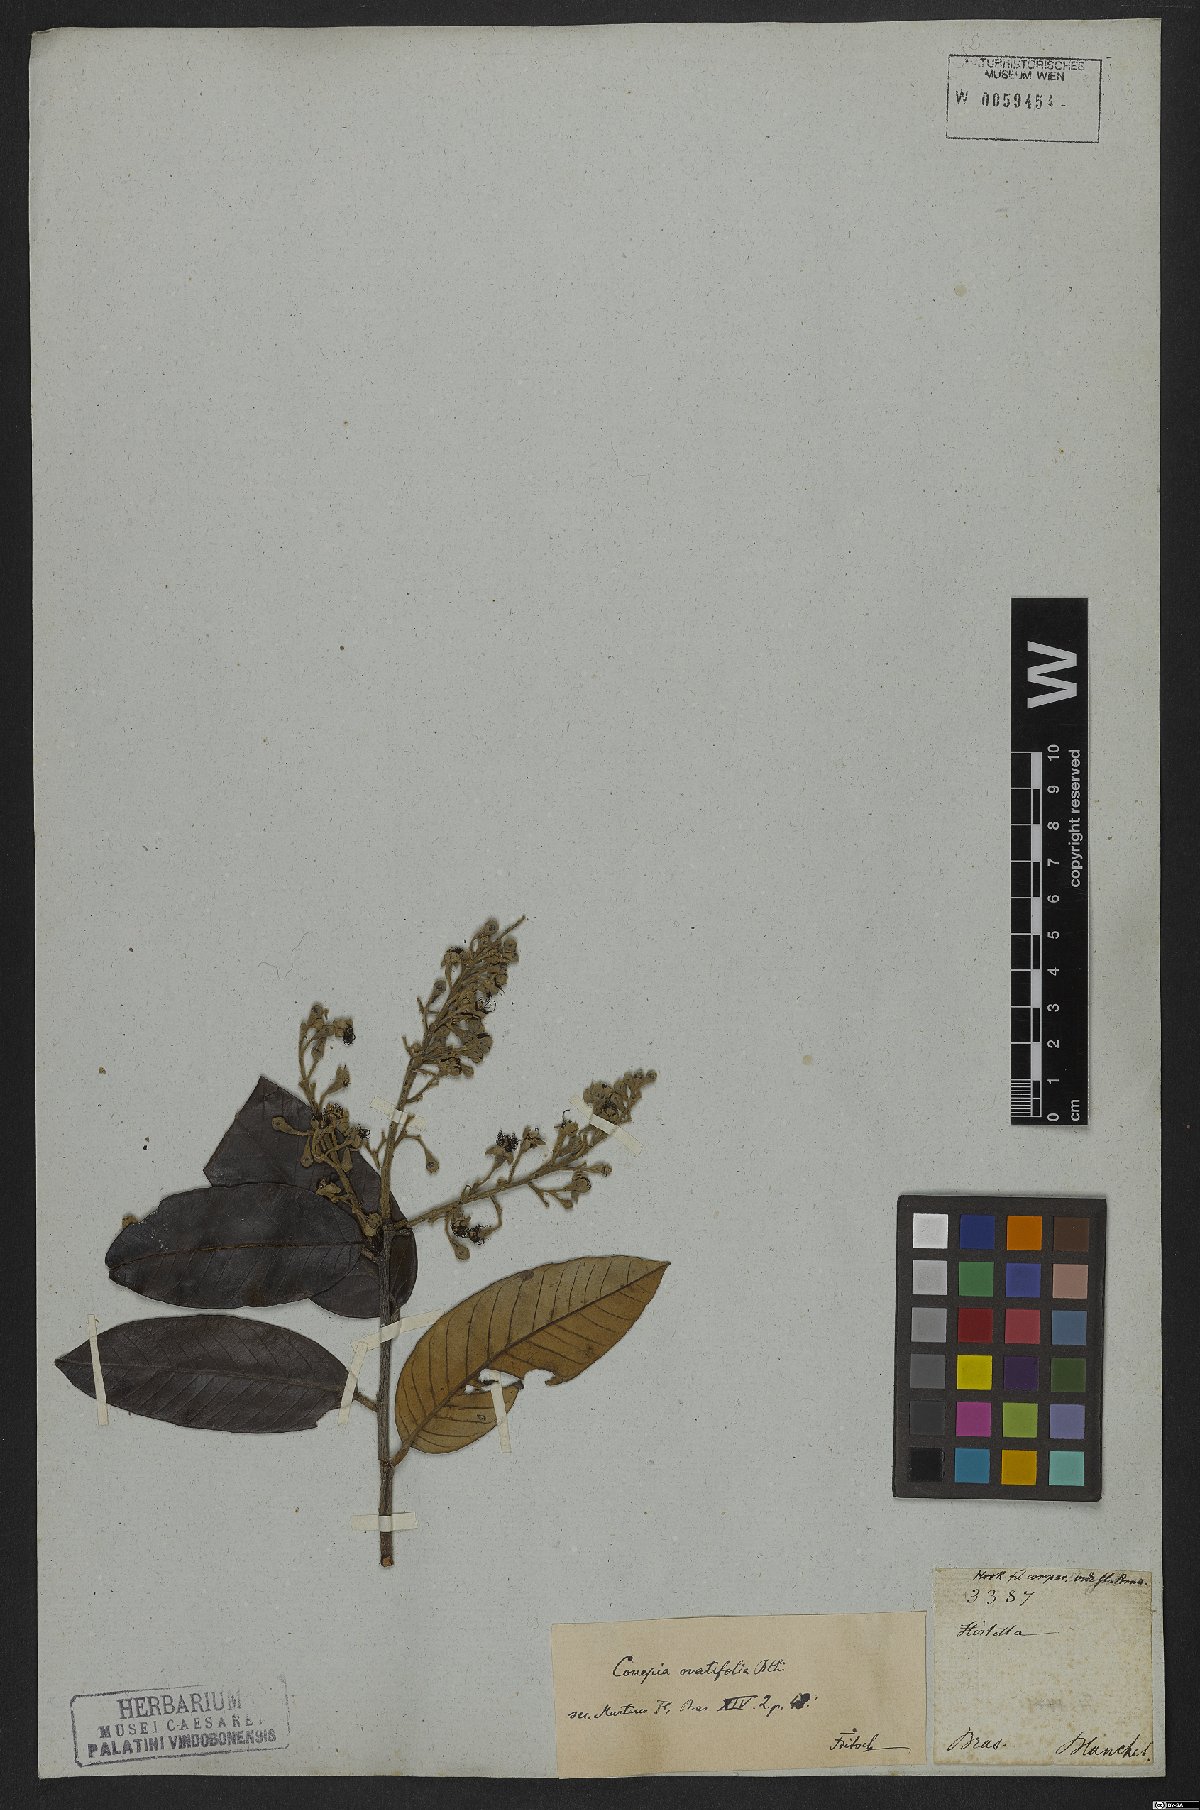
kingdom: Plantae
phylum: Tracheophyta
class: Magnoliopsida
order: Malpighiales
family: Chrysobalanaceae
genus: Couepia
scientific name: Couepia ovalifolia
